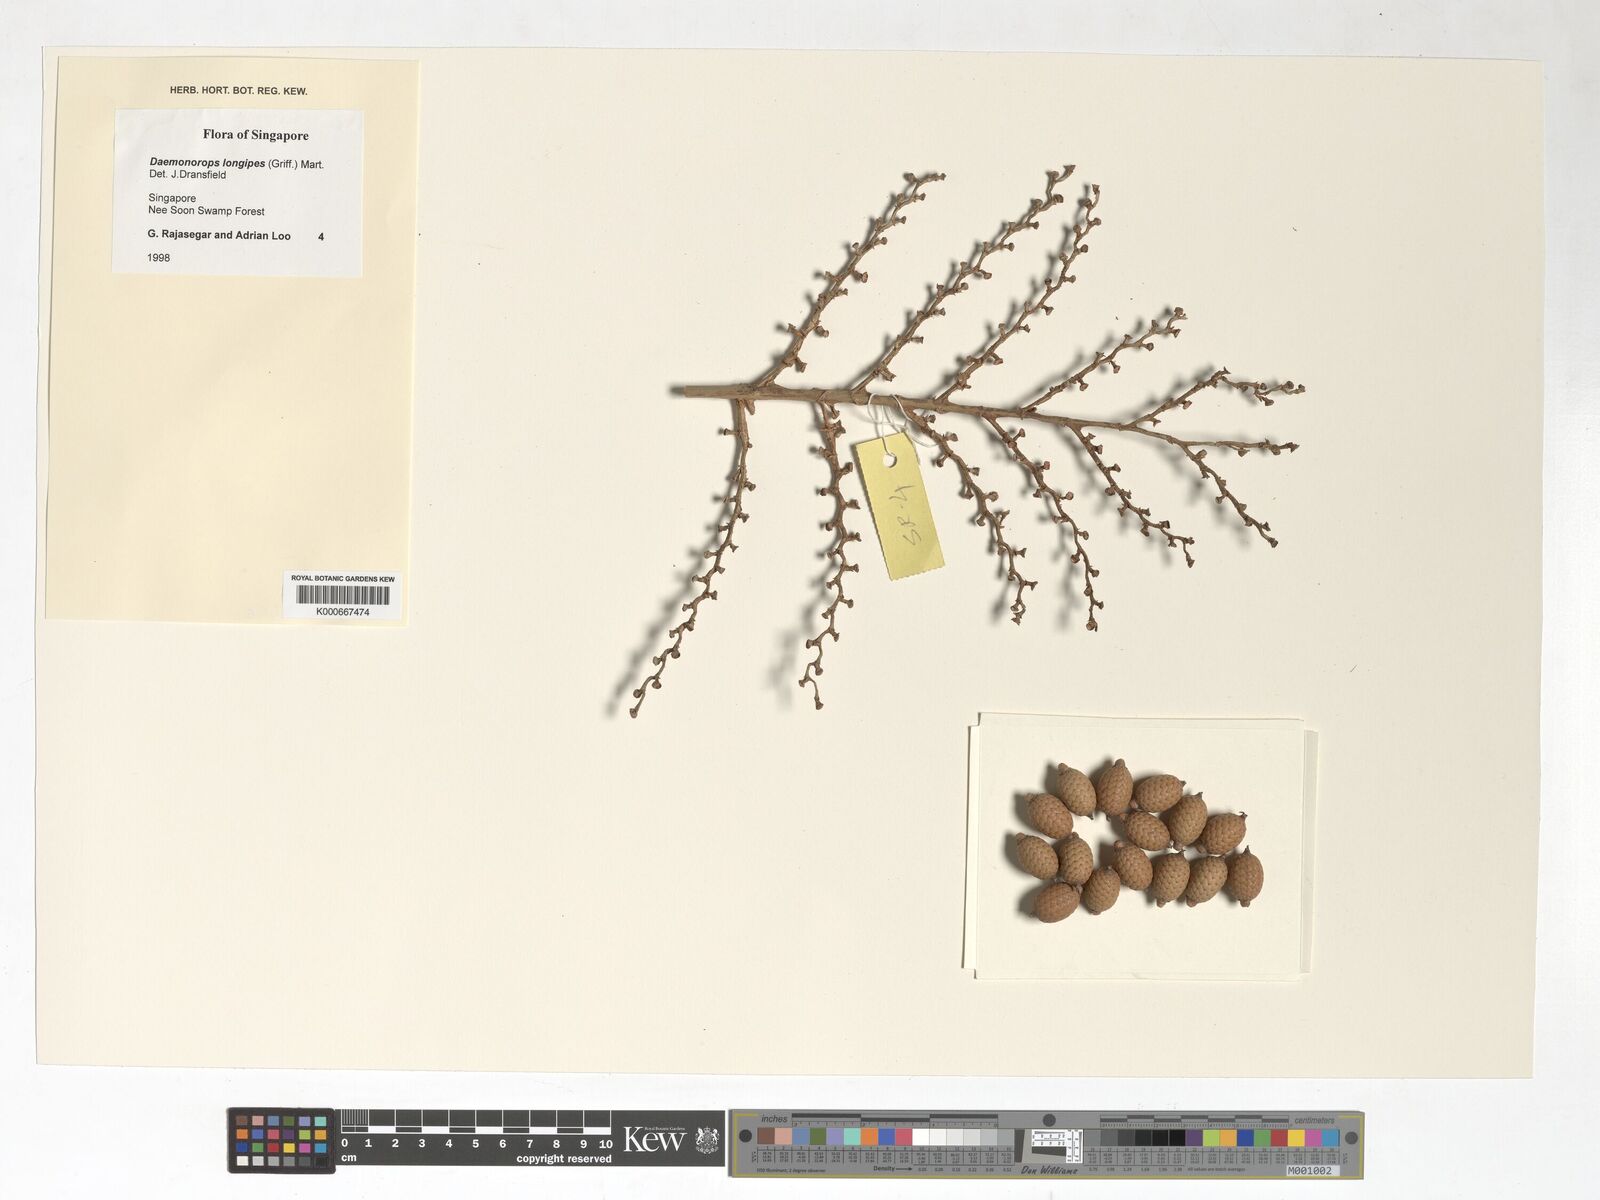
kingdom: Plantae
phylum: Tracheophyta
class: Liliopsida
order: Arecales
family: Arecaceae
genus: Calamus
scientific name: Calamus longipes
